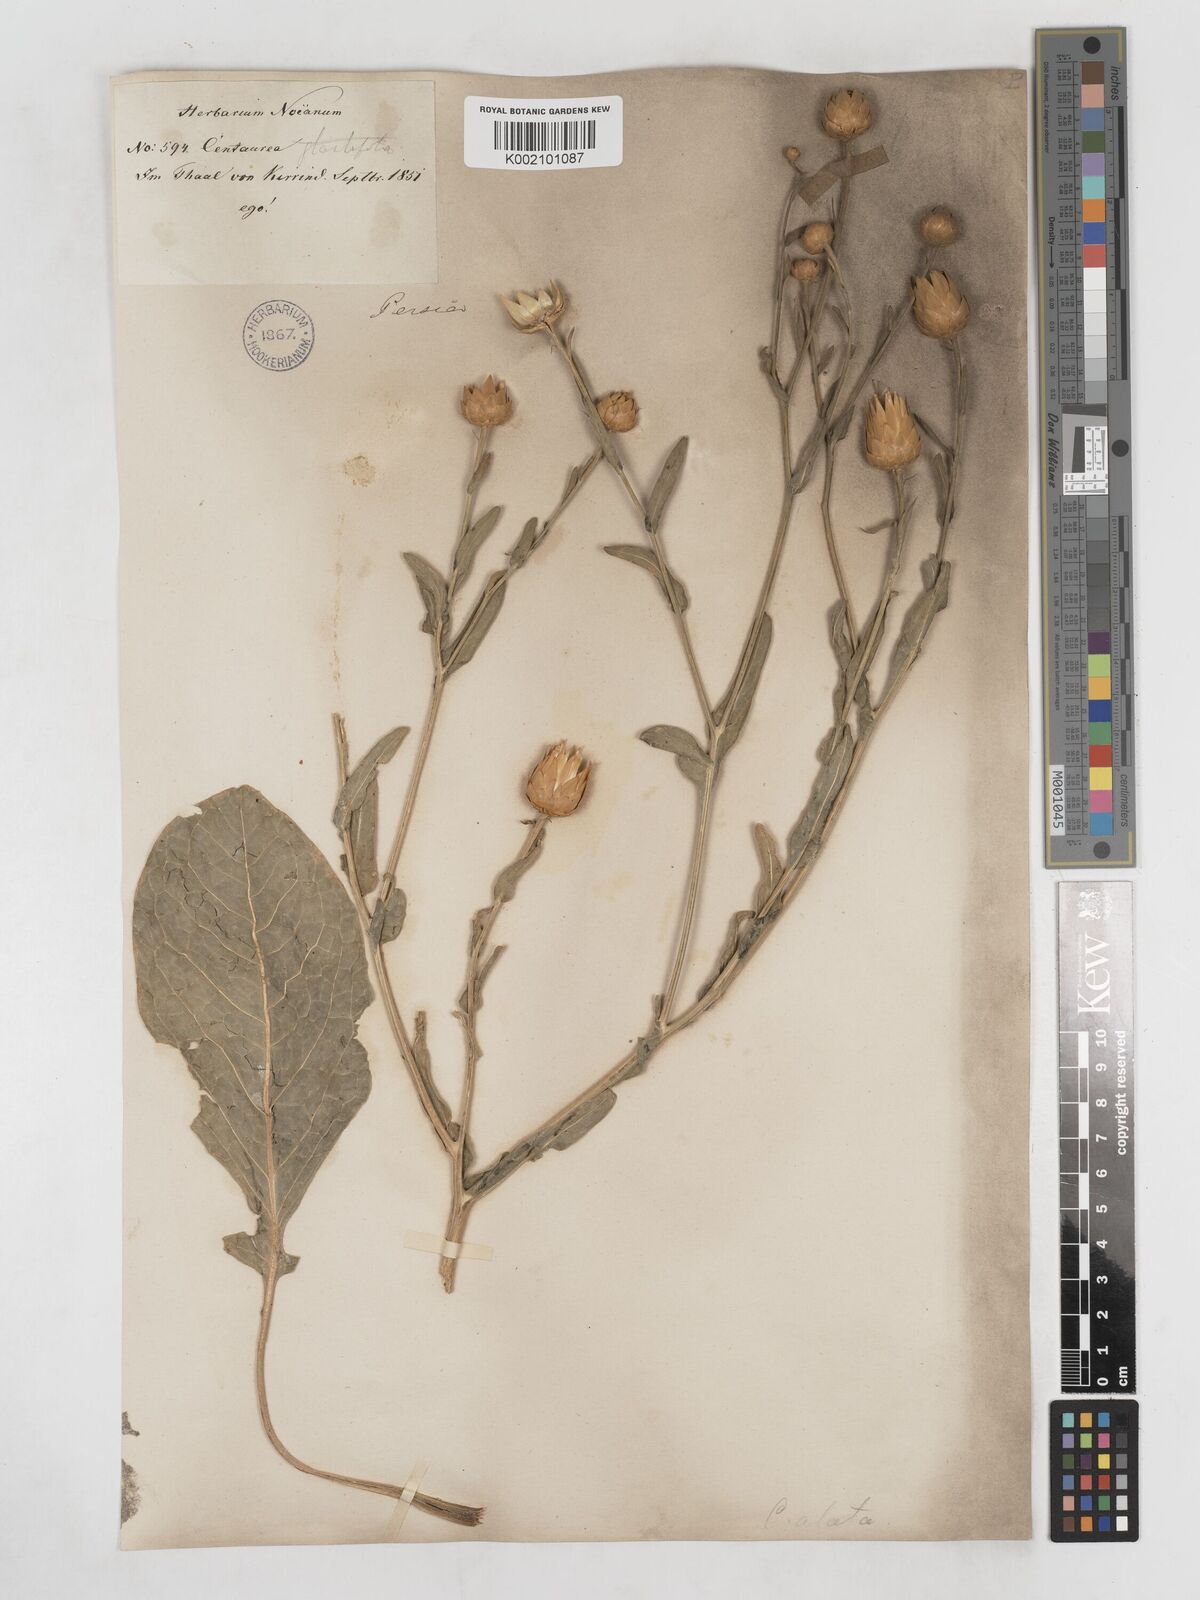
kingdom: Plantae
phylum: Tracheophyta
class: Magnoliopsida
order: Asterales
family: Asteraceae
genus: Centaurea
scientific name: Centaurea behen
